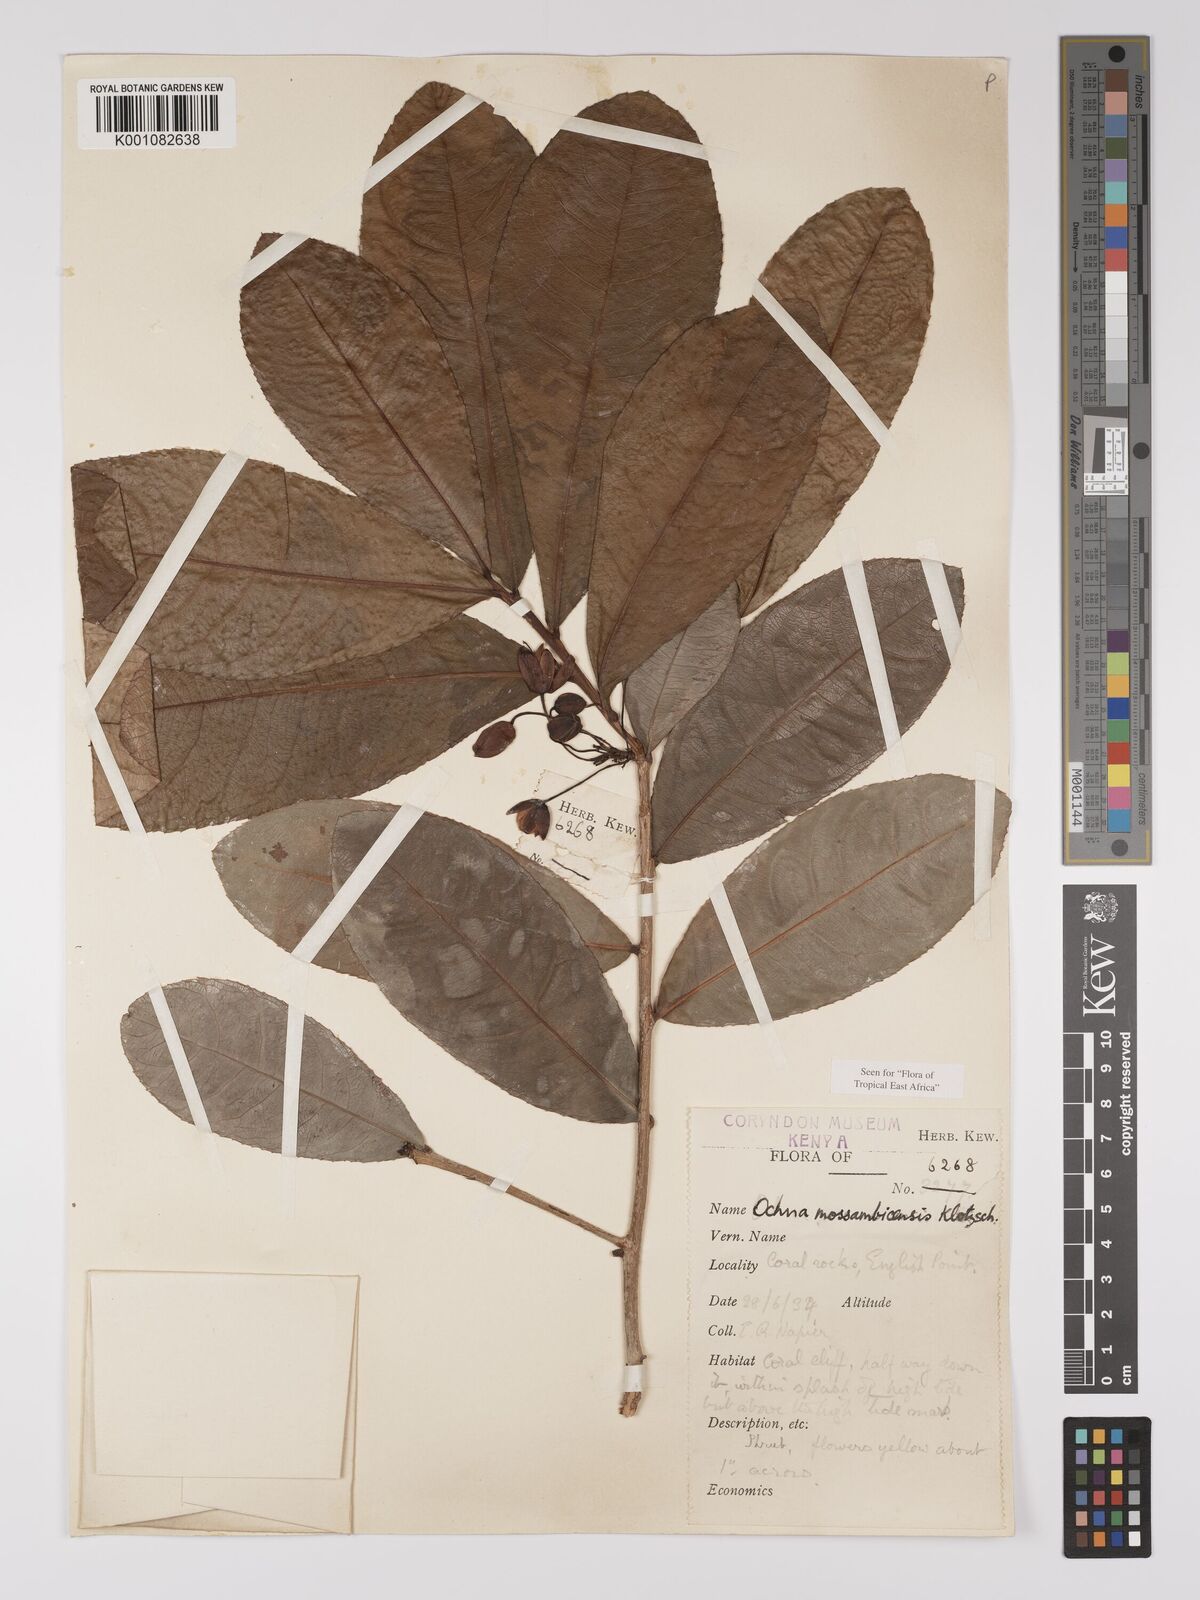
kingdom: Plantae
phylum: Tracheophyta
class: Magnoliopsida
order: Malpighiales
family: Ochnaceae
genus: Ochna
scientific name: Ochna atropurpurea
